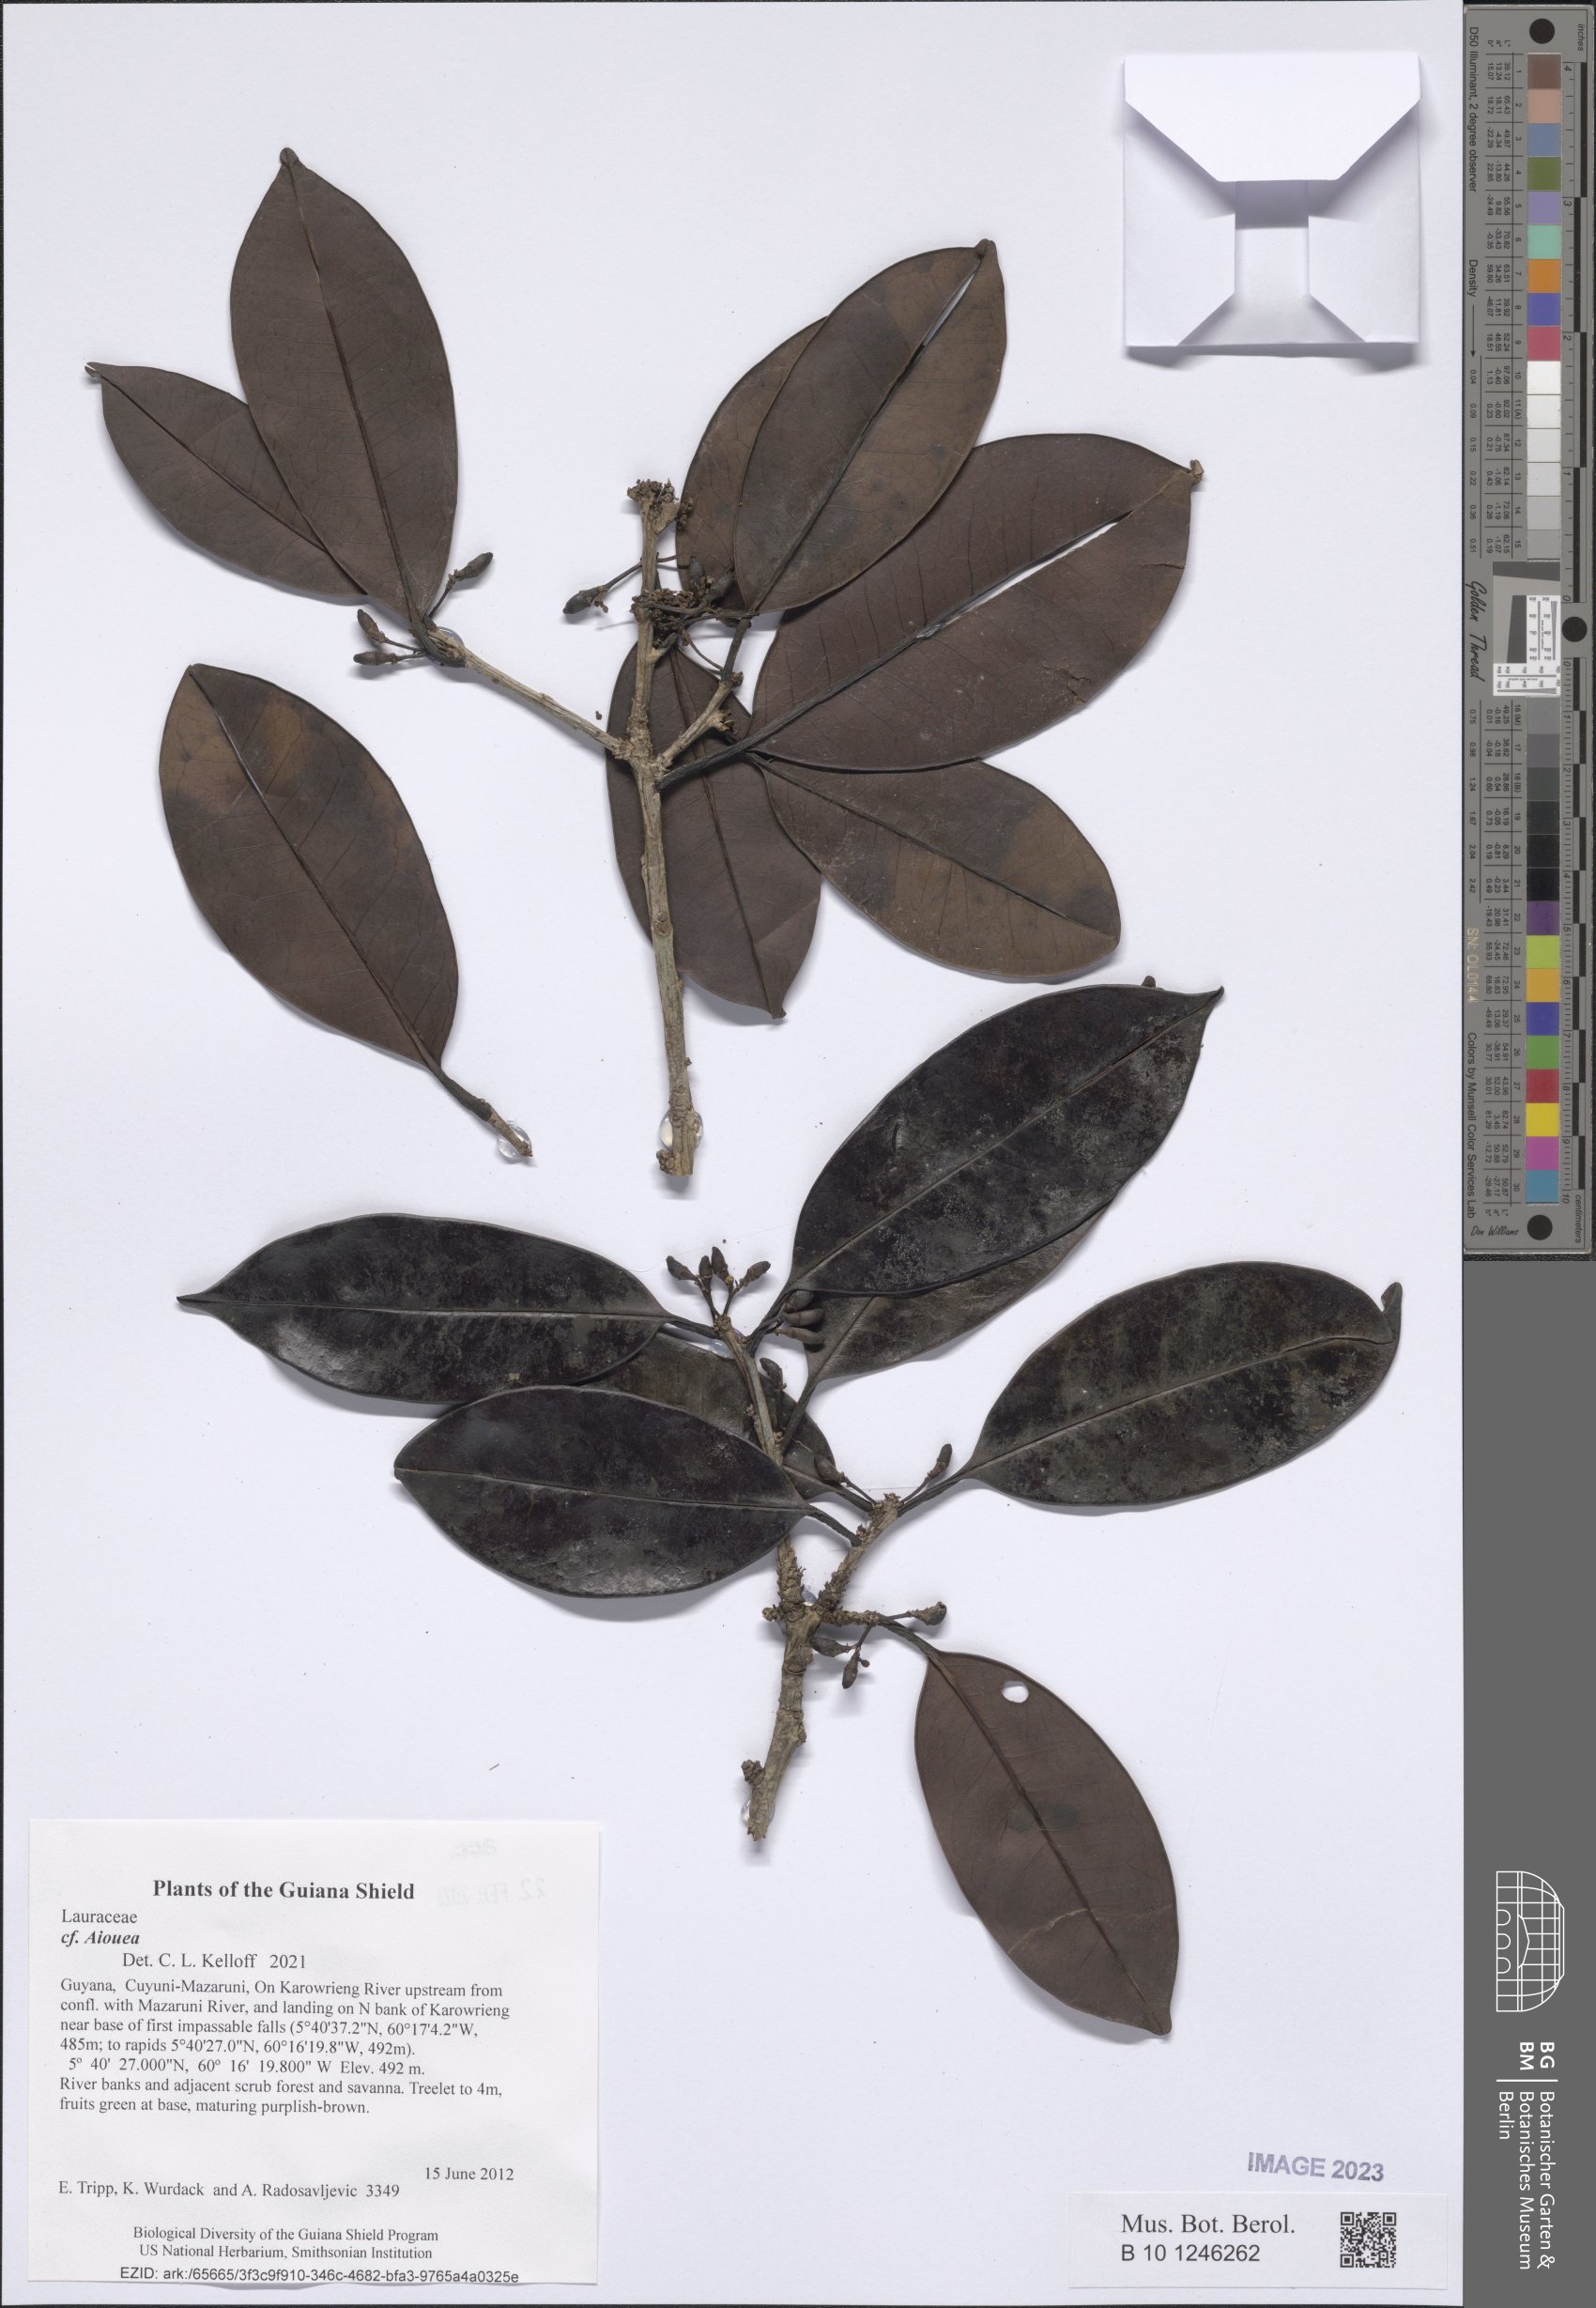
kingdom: Plantae
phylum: Tracheophyta
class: Magnoliopsida
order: Laurales
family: Lauraceae
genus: Aiouea
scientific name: Aiouea
